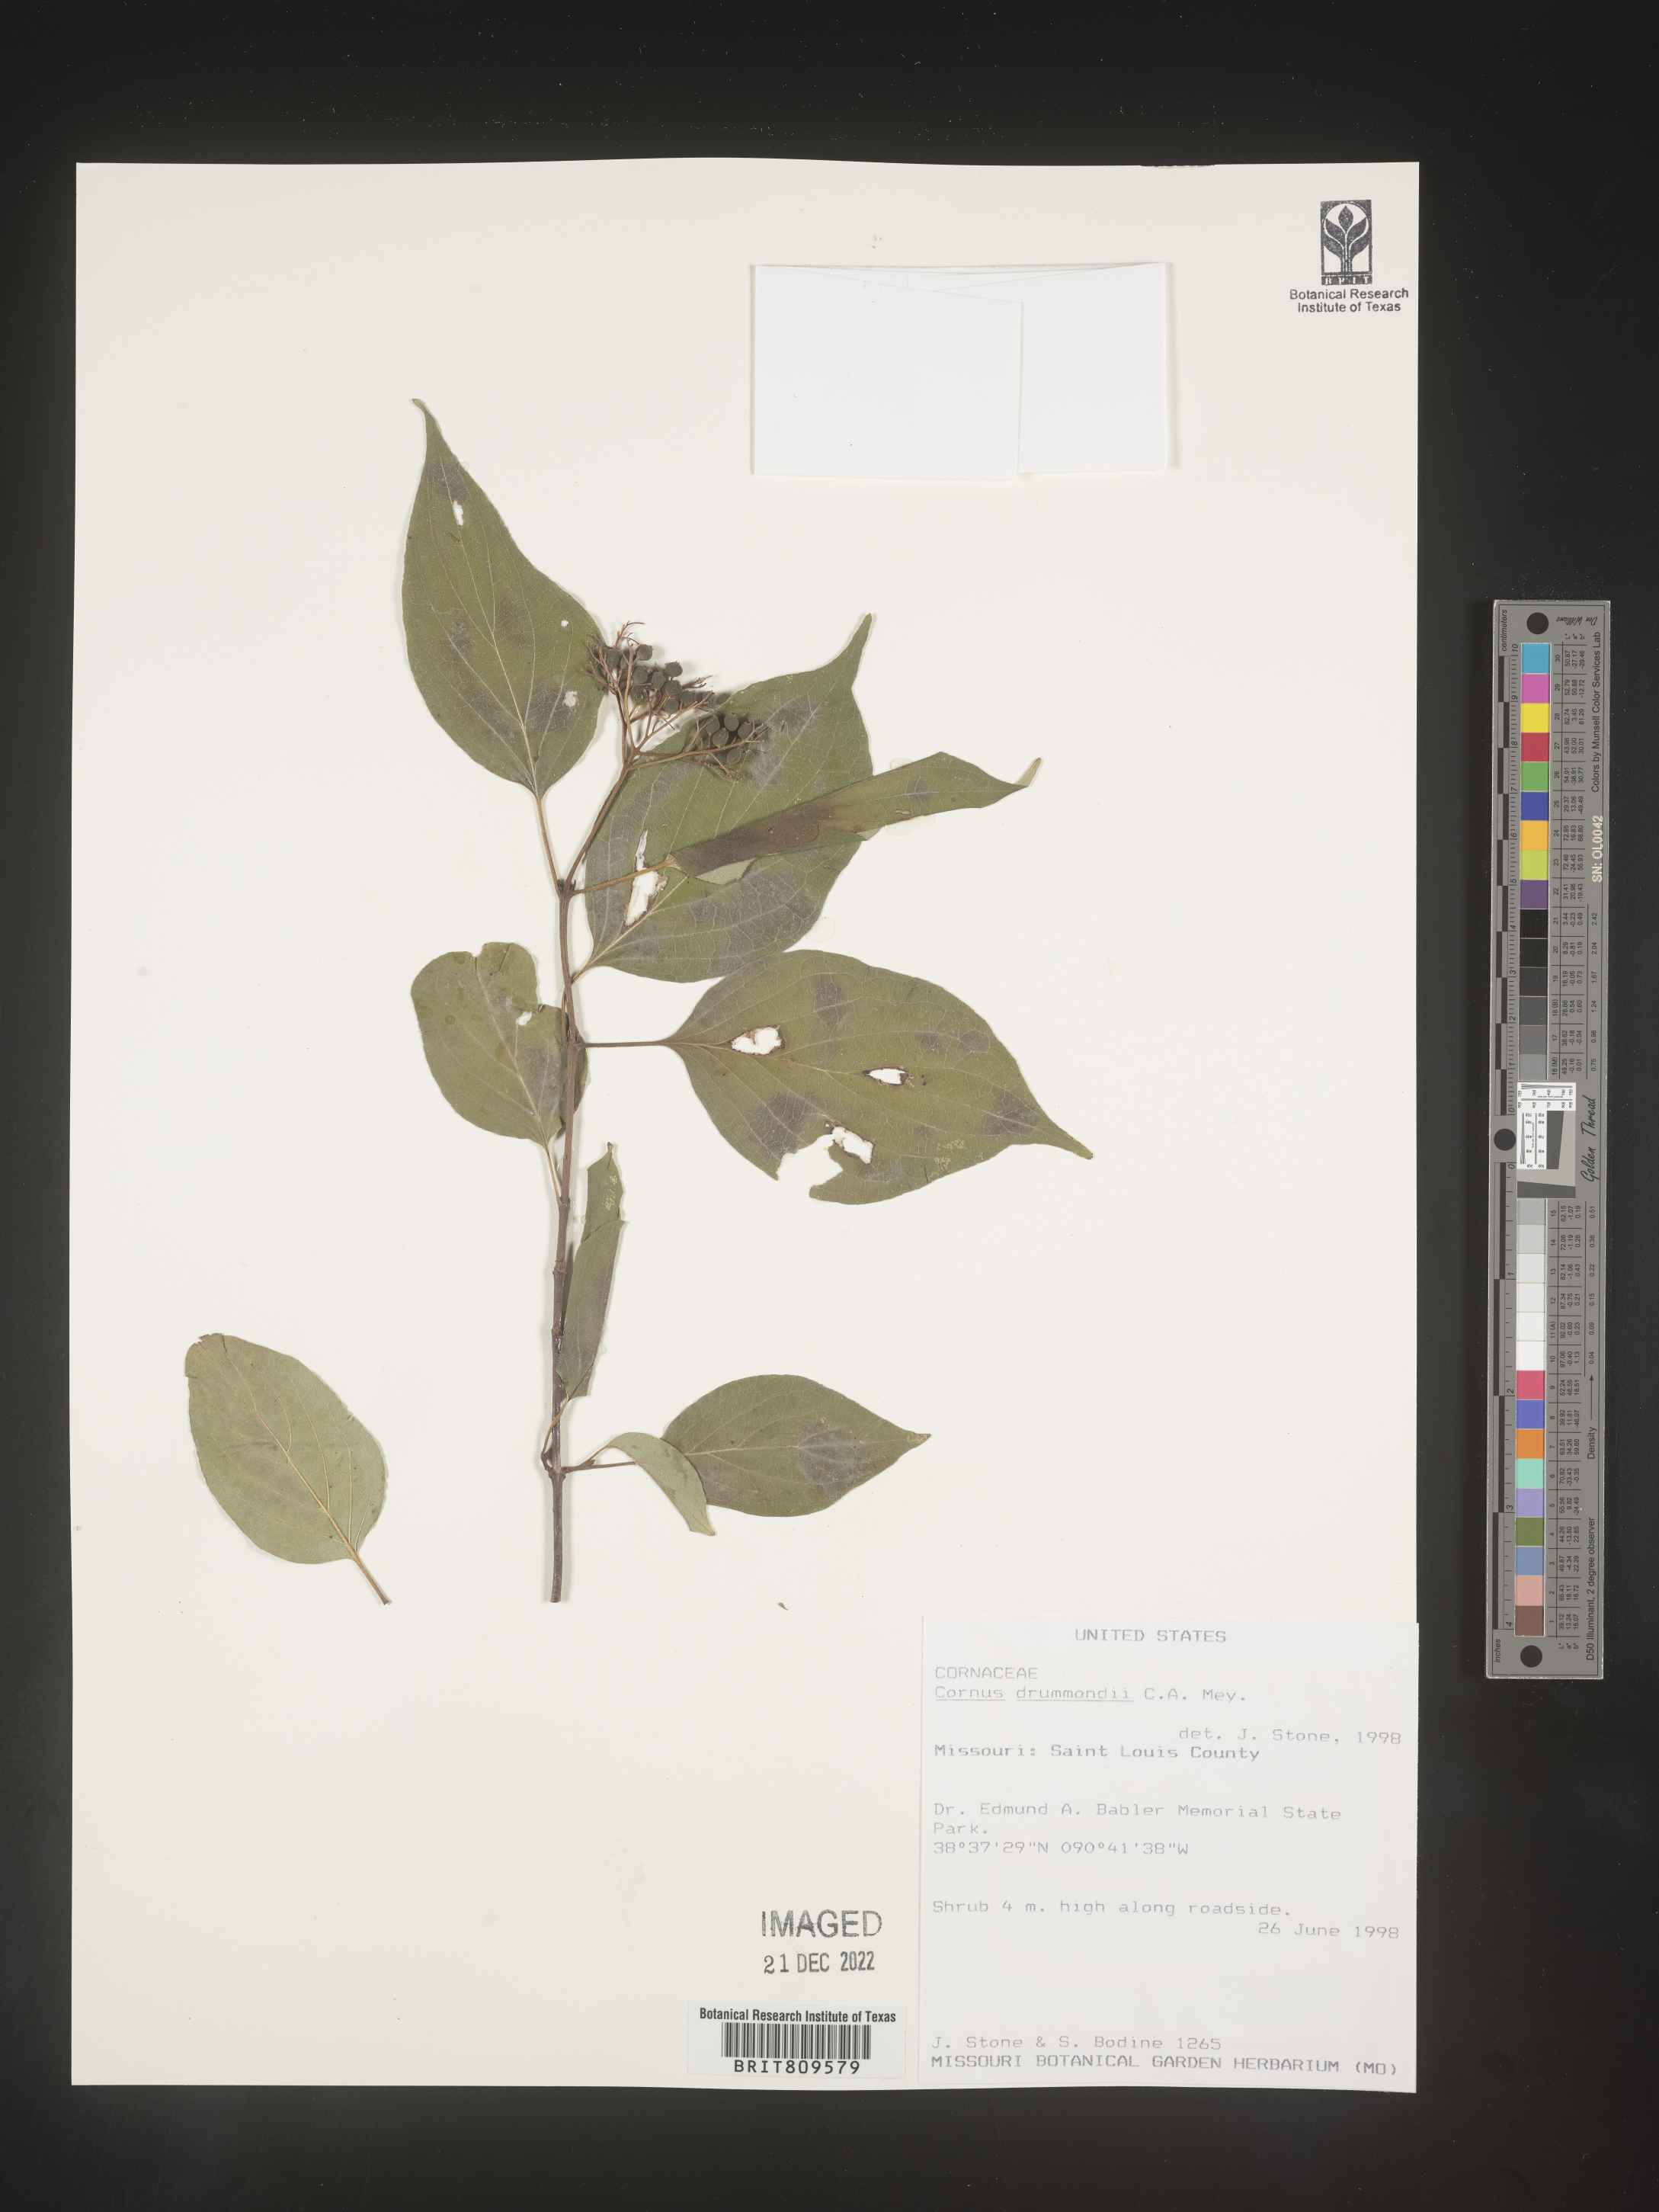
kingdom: Plantae
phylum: Tracheophyta
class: Magnoliopsida
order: Cornales
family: Cornaceae
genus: Cornus
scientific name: Cornus drummondii
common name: Rough-leaf dogwood
